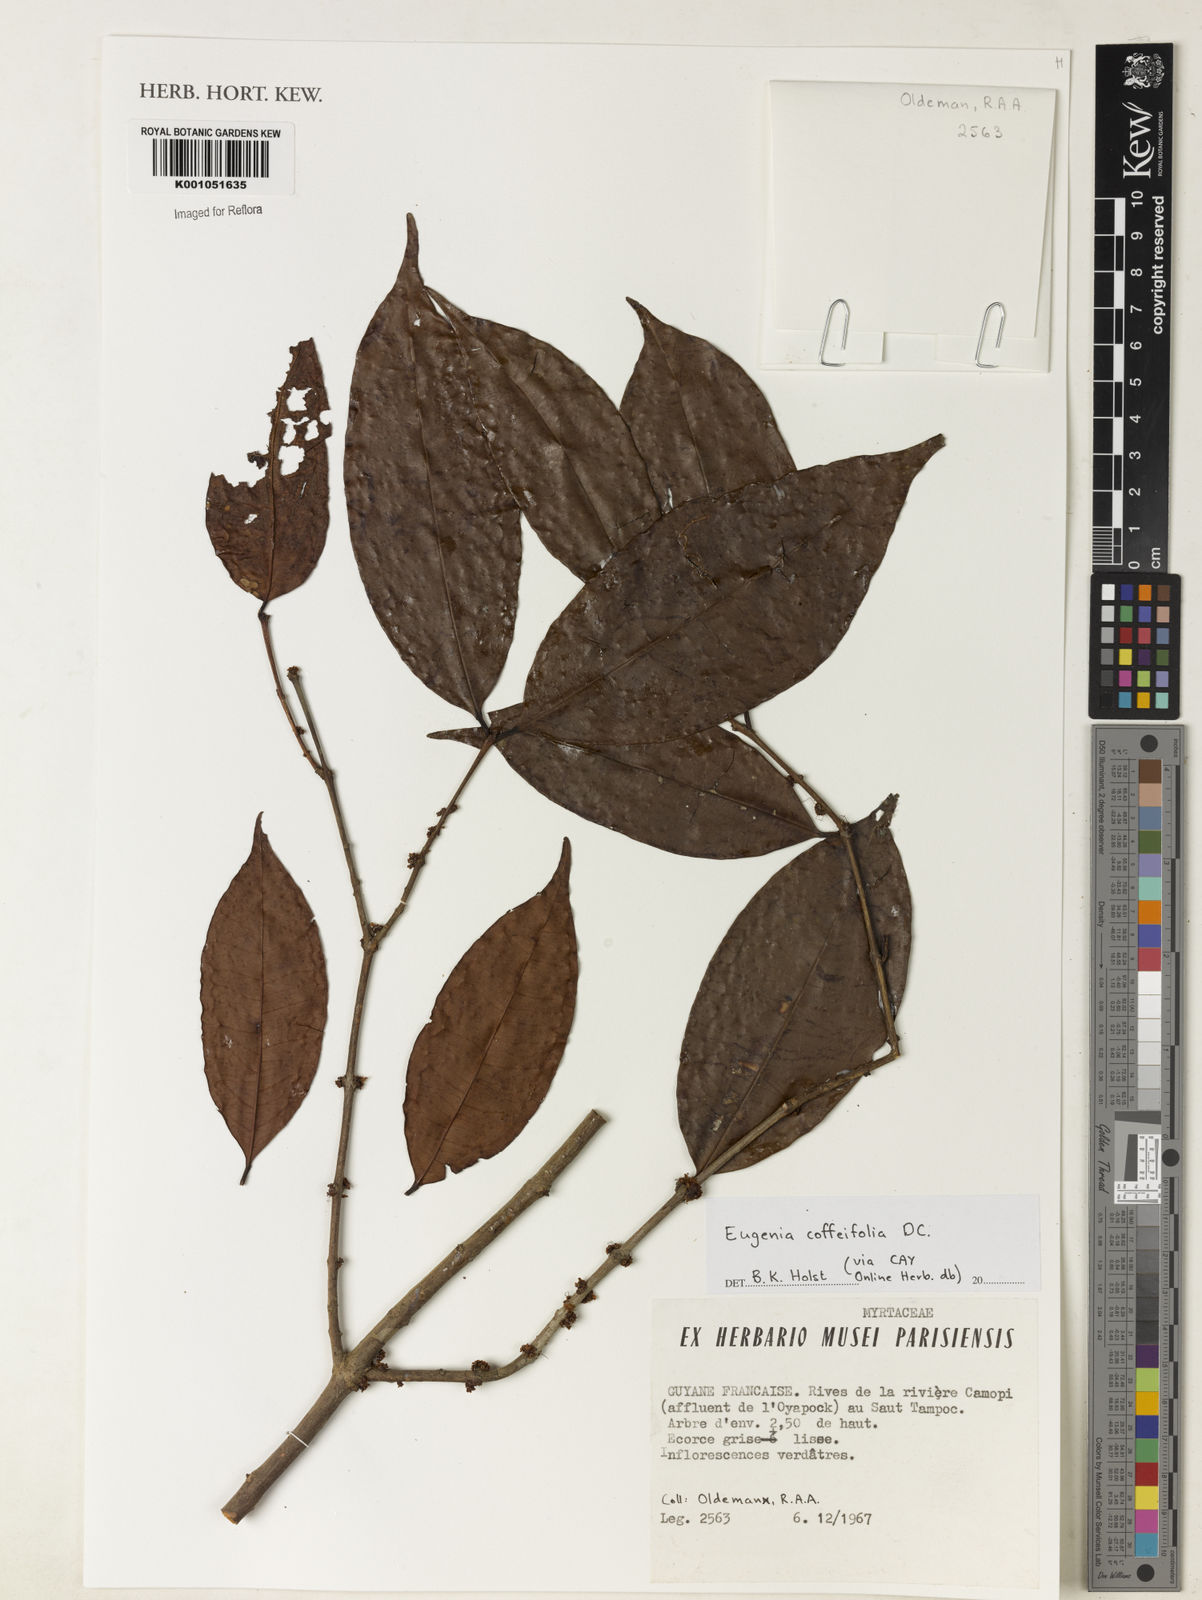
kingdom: Plantae
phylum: Tracheophyta
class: Magnoliopsida
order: Myrtales
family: Myrtaceae
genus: Eugenia
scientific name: Eugenia coffeifolia
